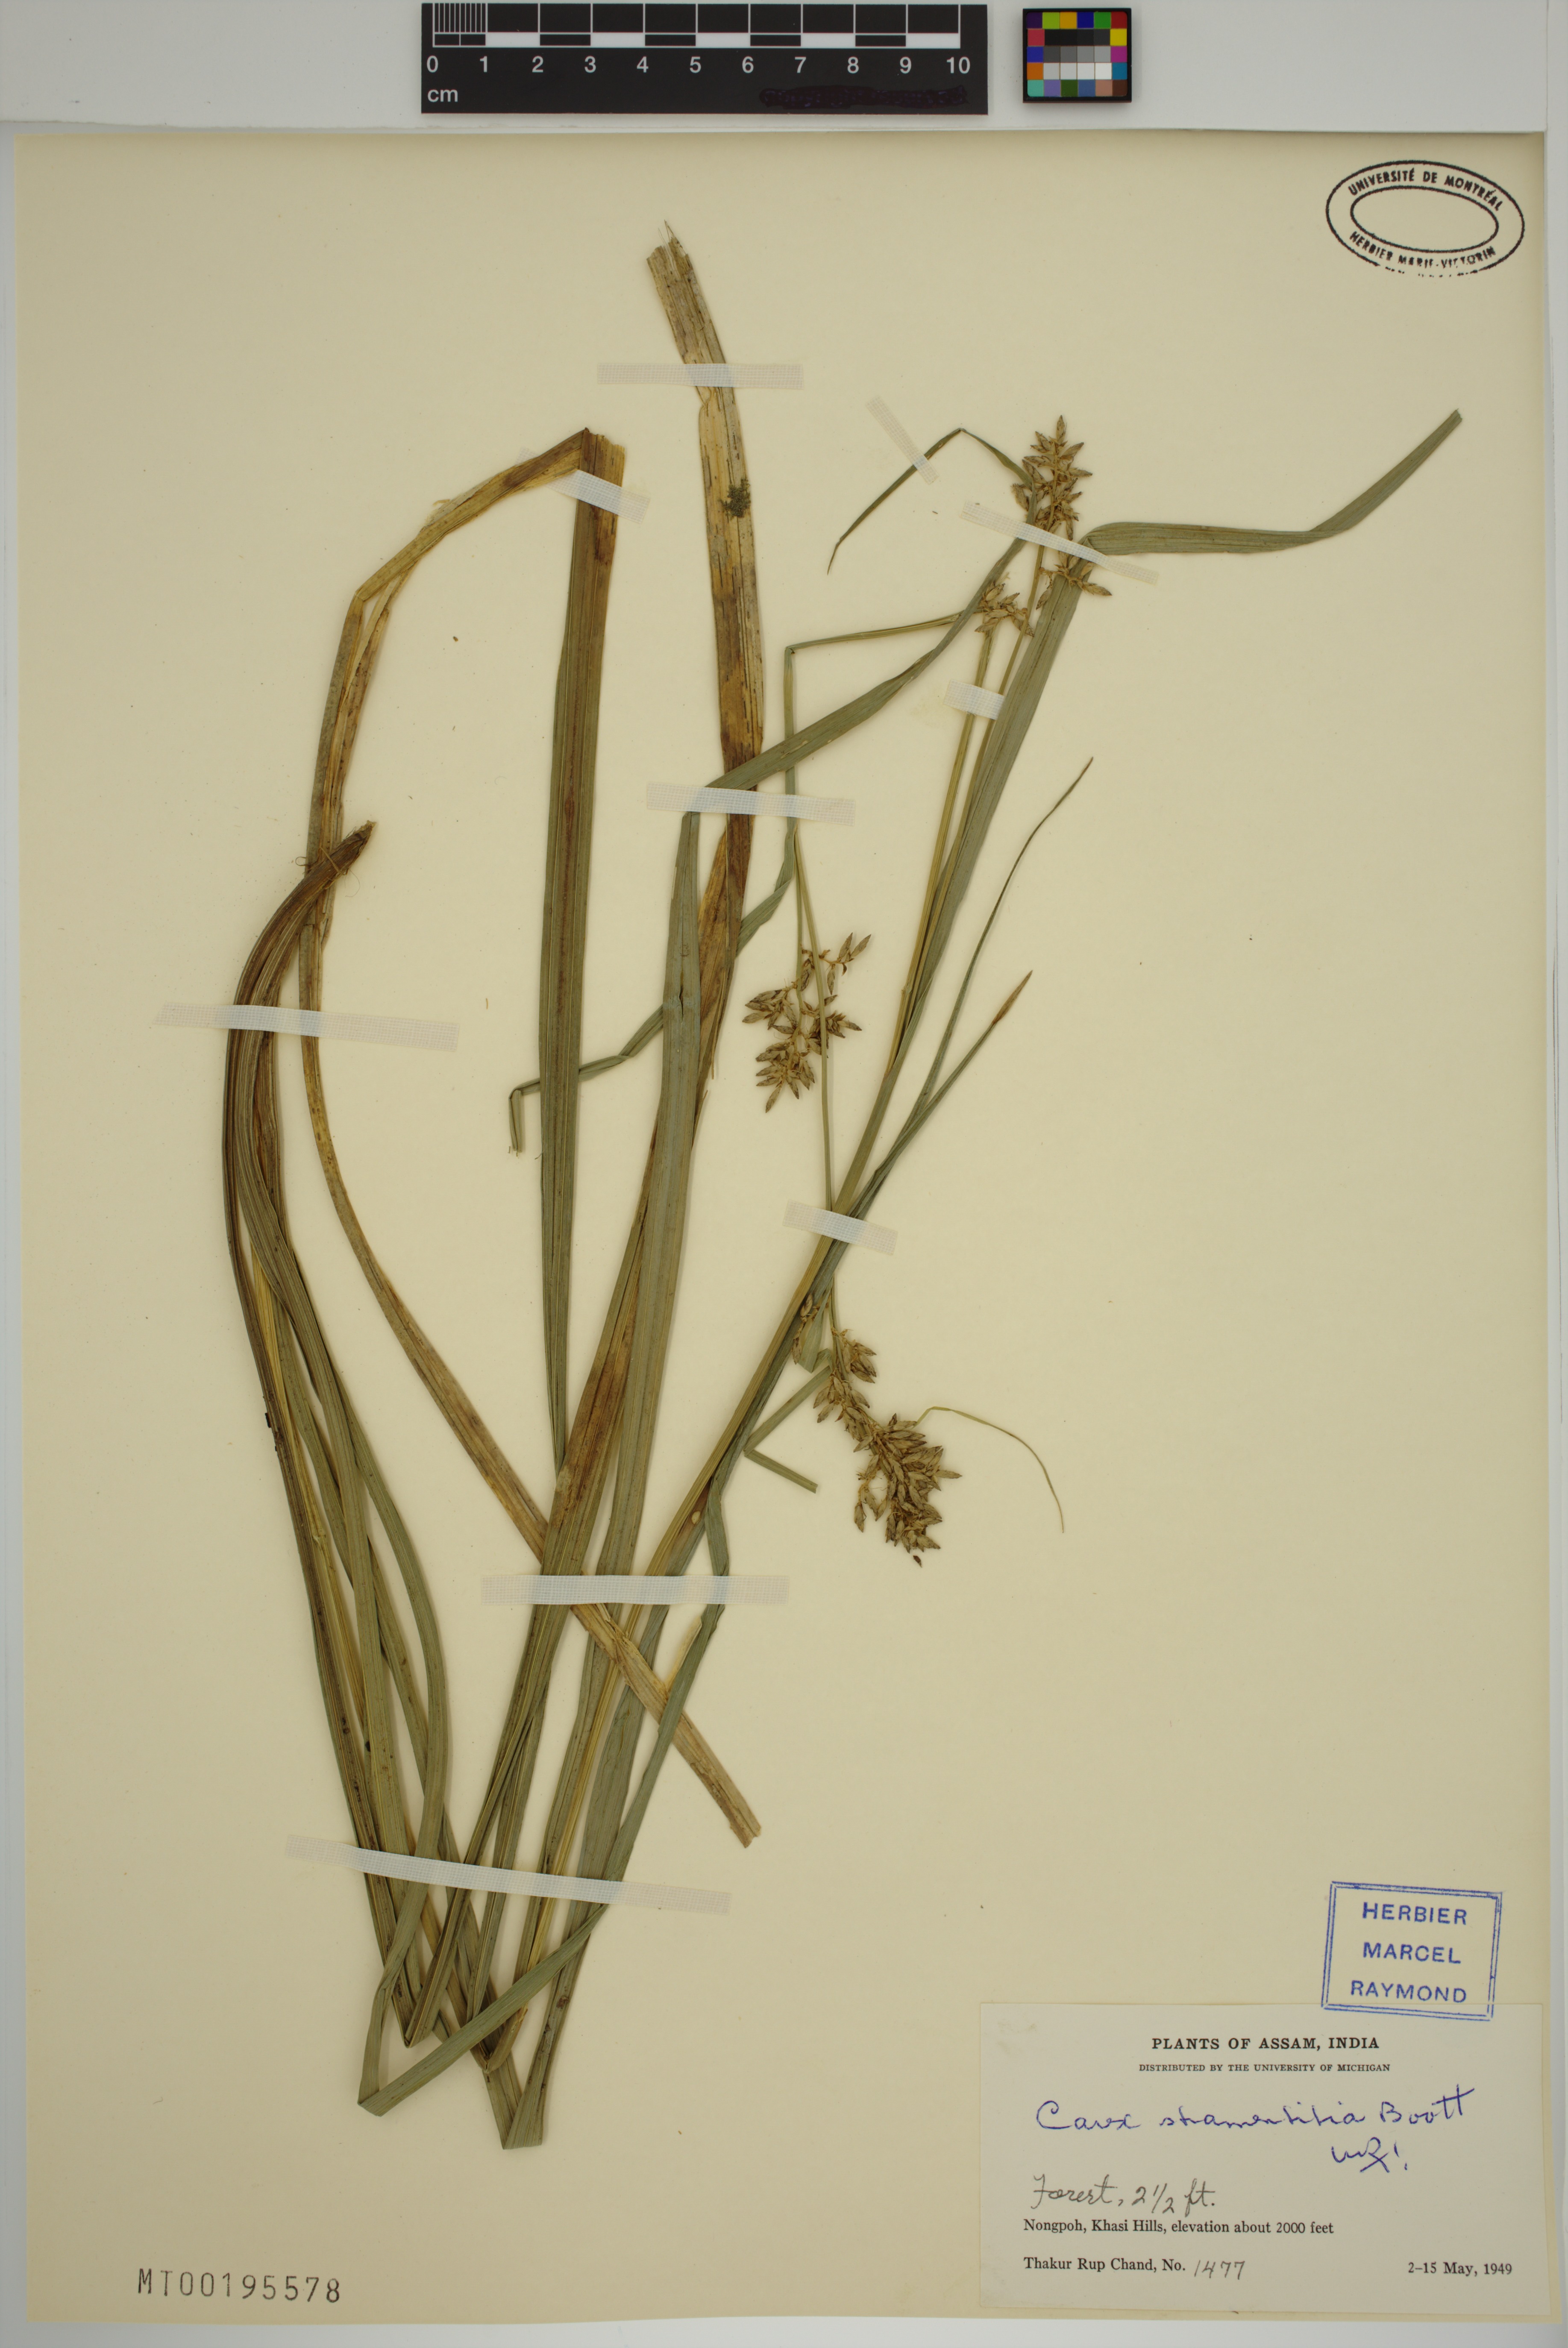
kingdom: Plantae
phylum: Tracheophyta
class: Liliopsida
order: Poales
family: Cyperaceae
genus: Carex
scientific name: Carex stramentitia
